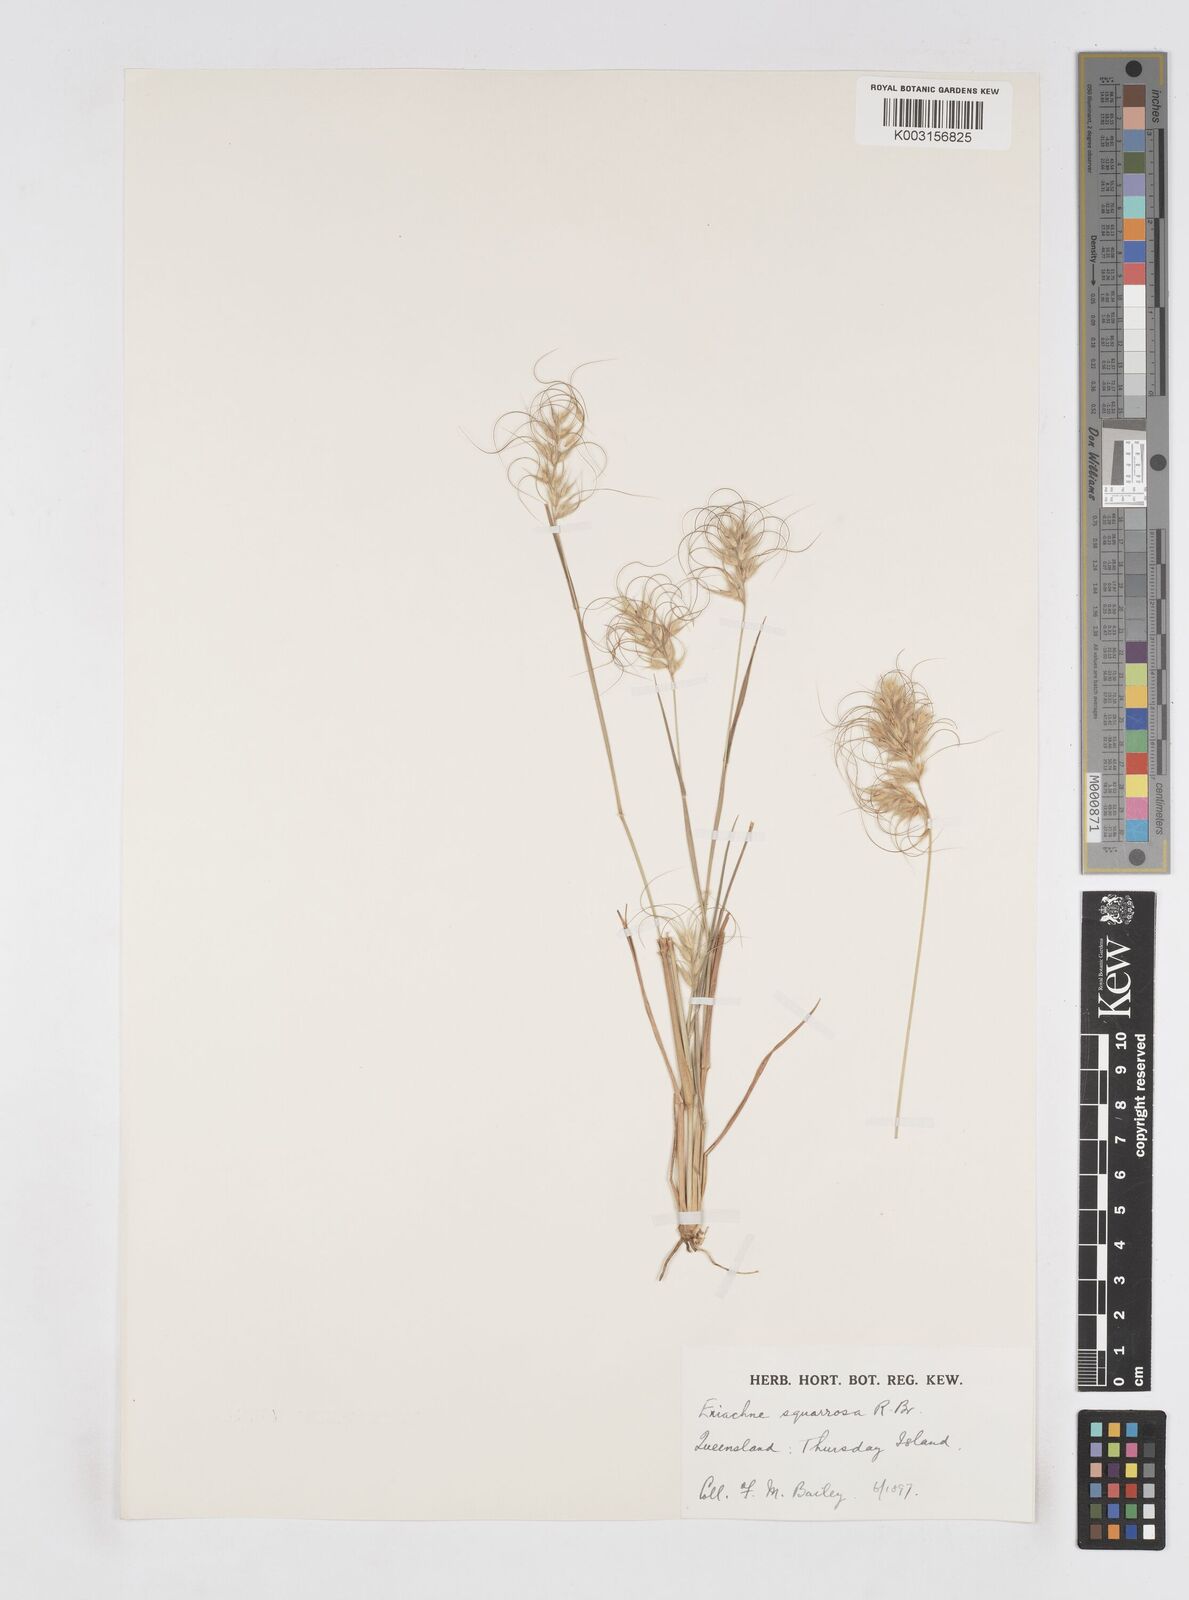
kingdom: Plantae
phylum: Tracheophyta
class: Liliopsida
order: Poales
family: Poaceae
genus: Eriachne
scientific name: Eriachne squarrosa
